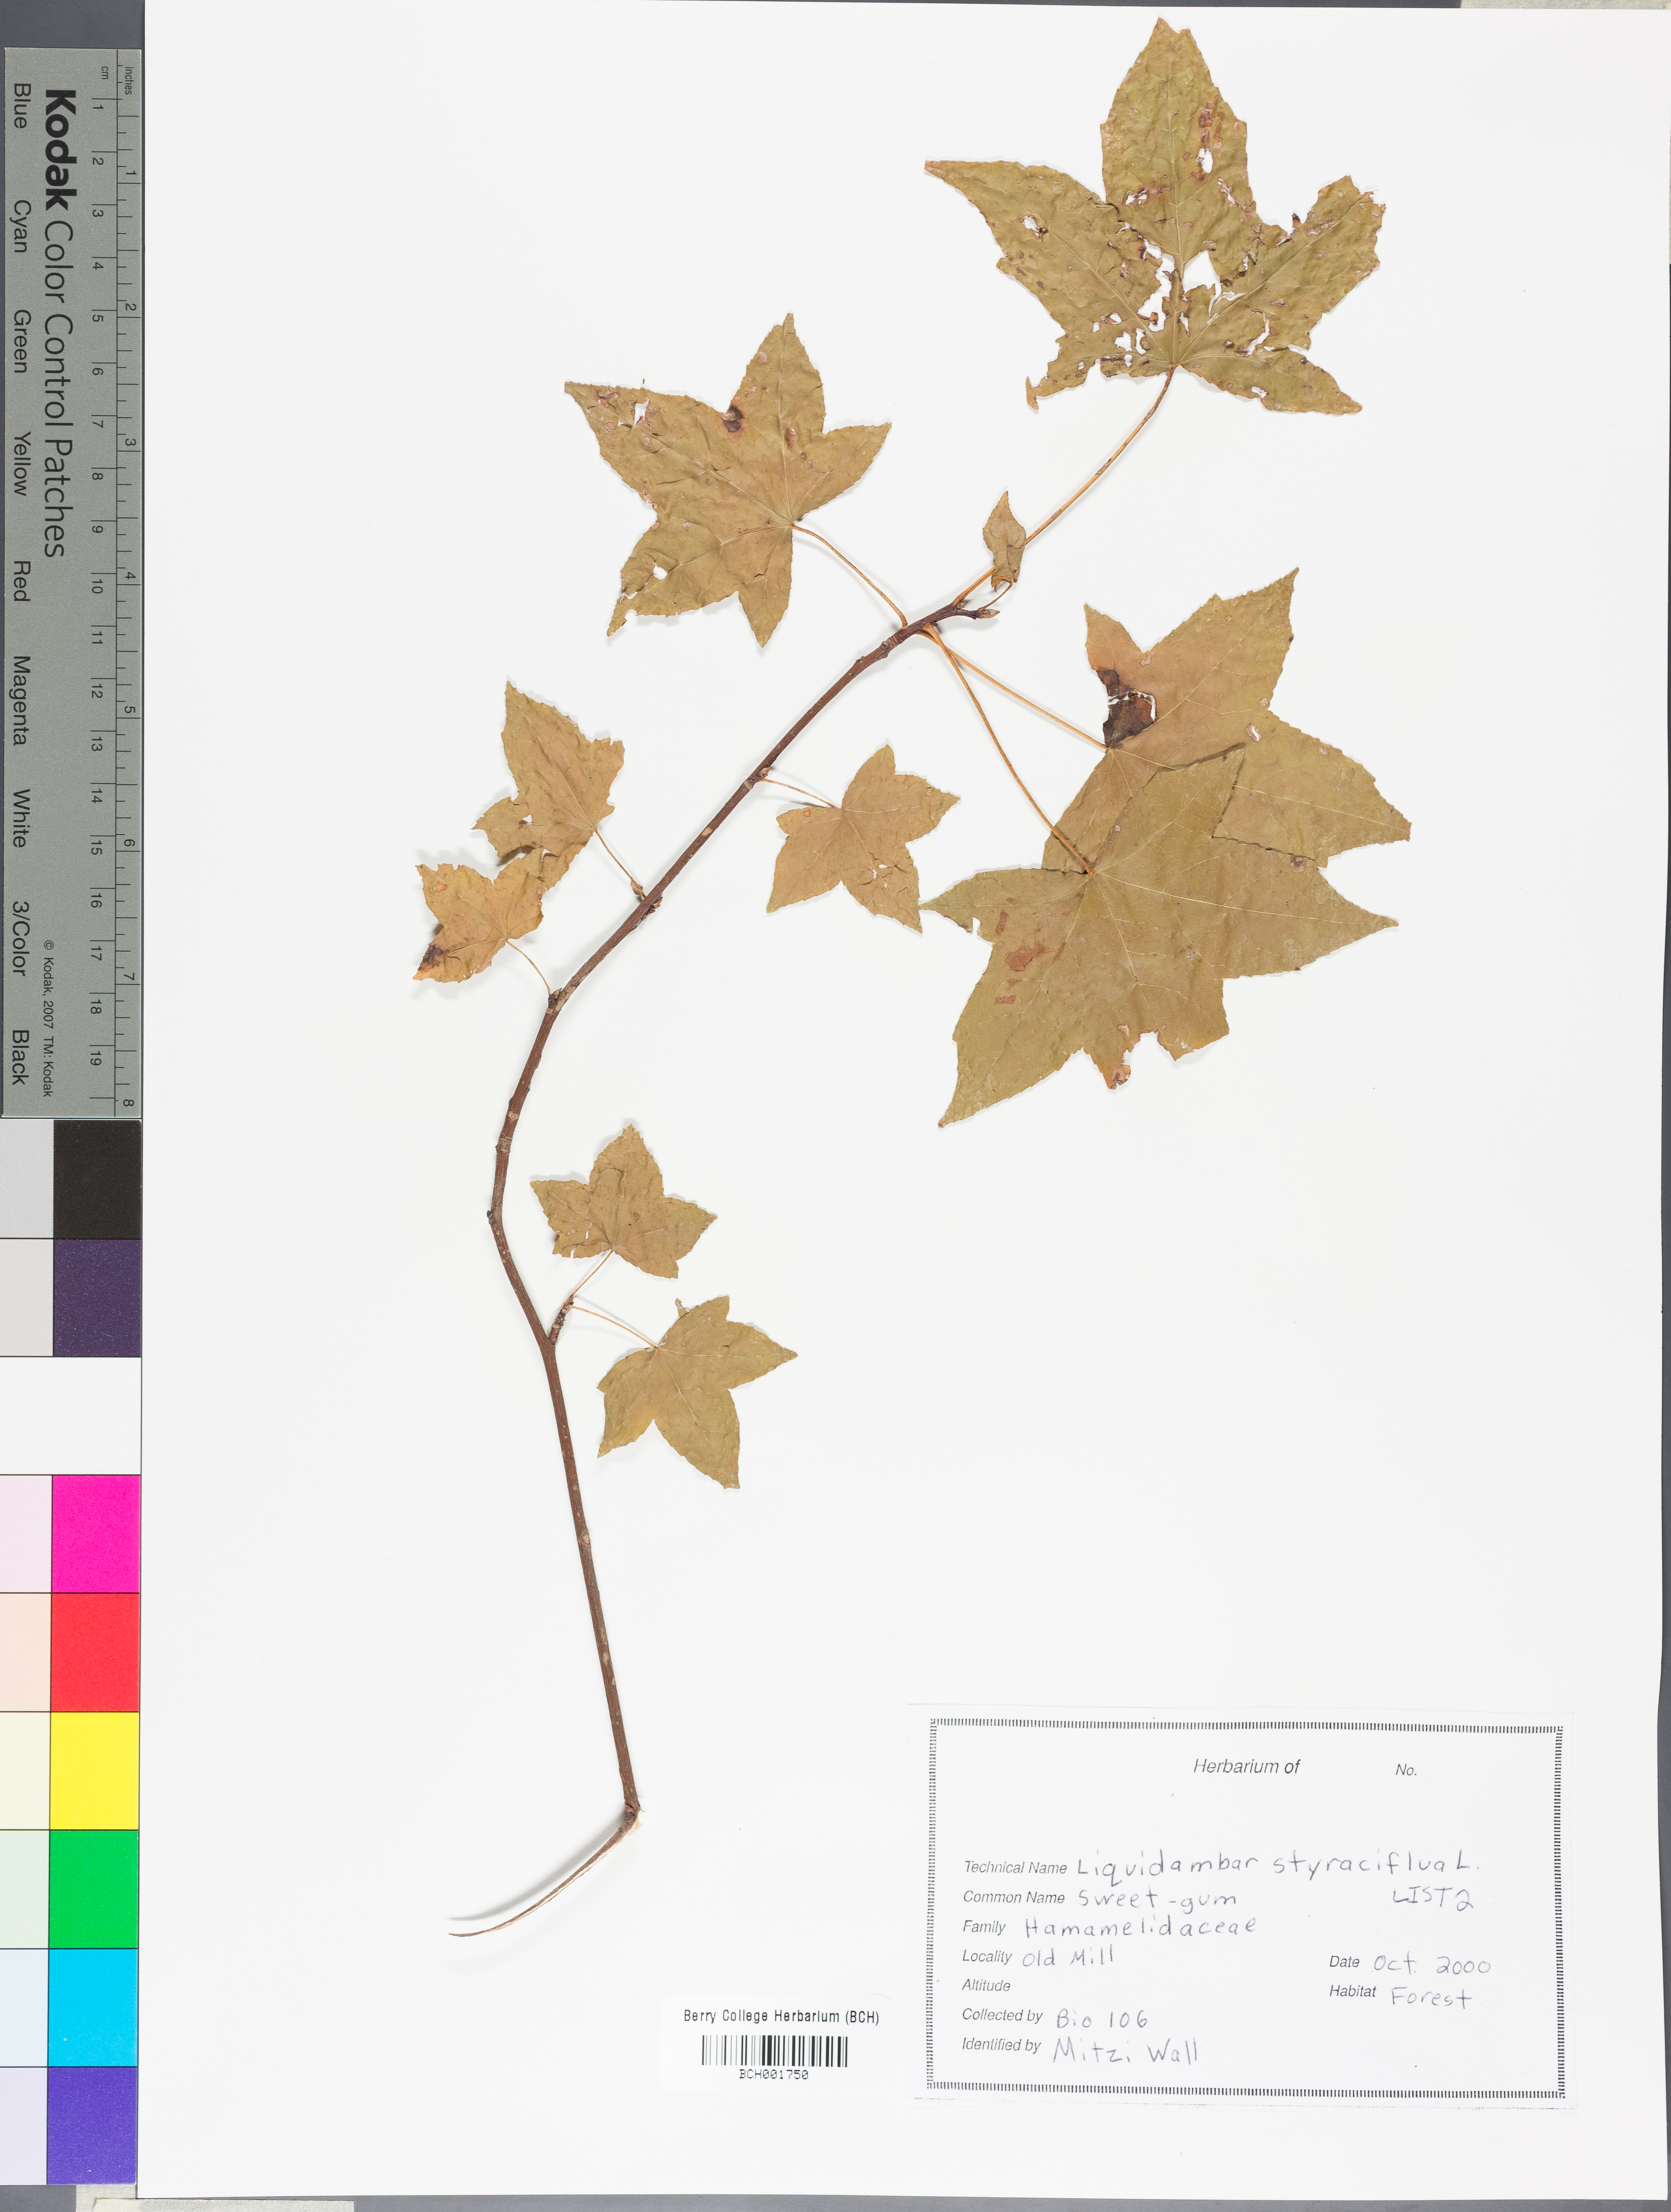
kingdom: Plantae
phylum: Tracheophyta
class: Magnoliopsida
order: Saxifragales
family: Altingiaceae
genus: Liquidambar
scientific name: Liquidambar styraciflua
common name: Sweet gum
